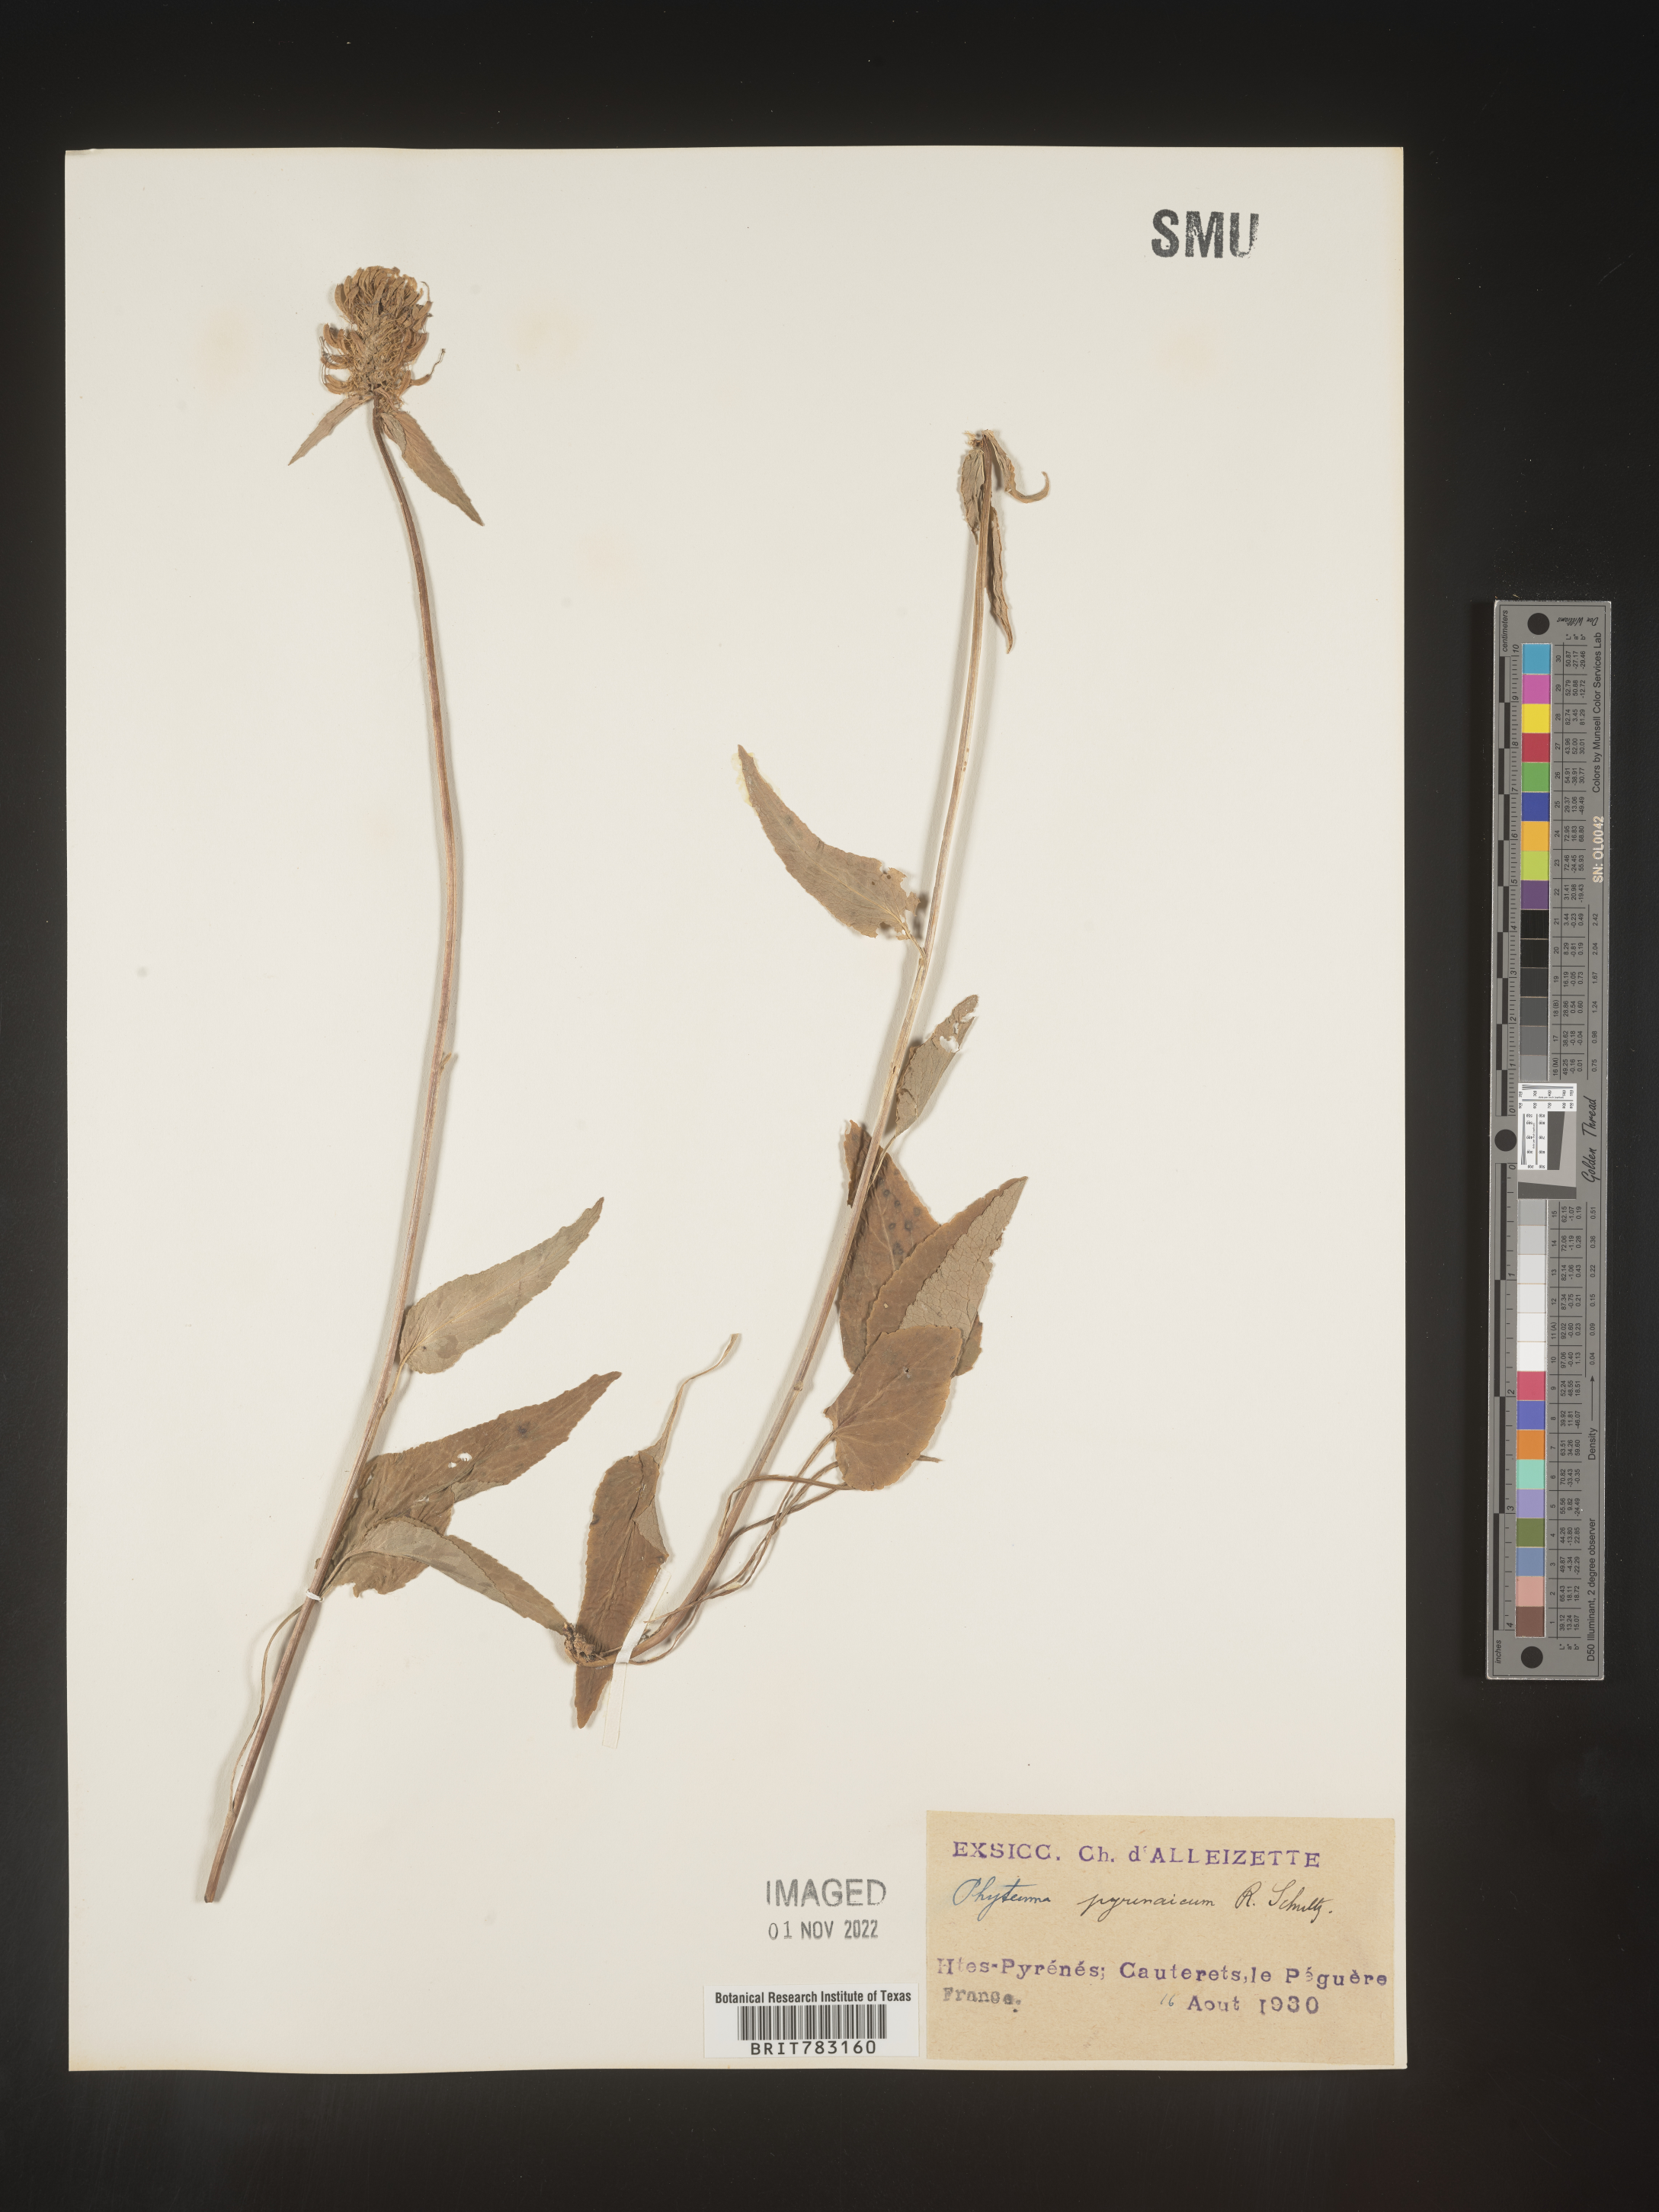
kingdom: Plantae
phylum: Tracheophyta
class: Magnoliopsida
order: Asterales
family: Campanulaceae
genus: Phyteuma
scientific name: Phyteuma
